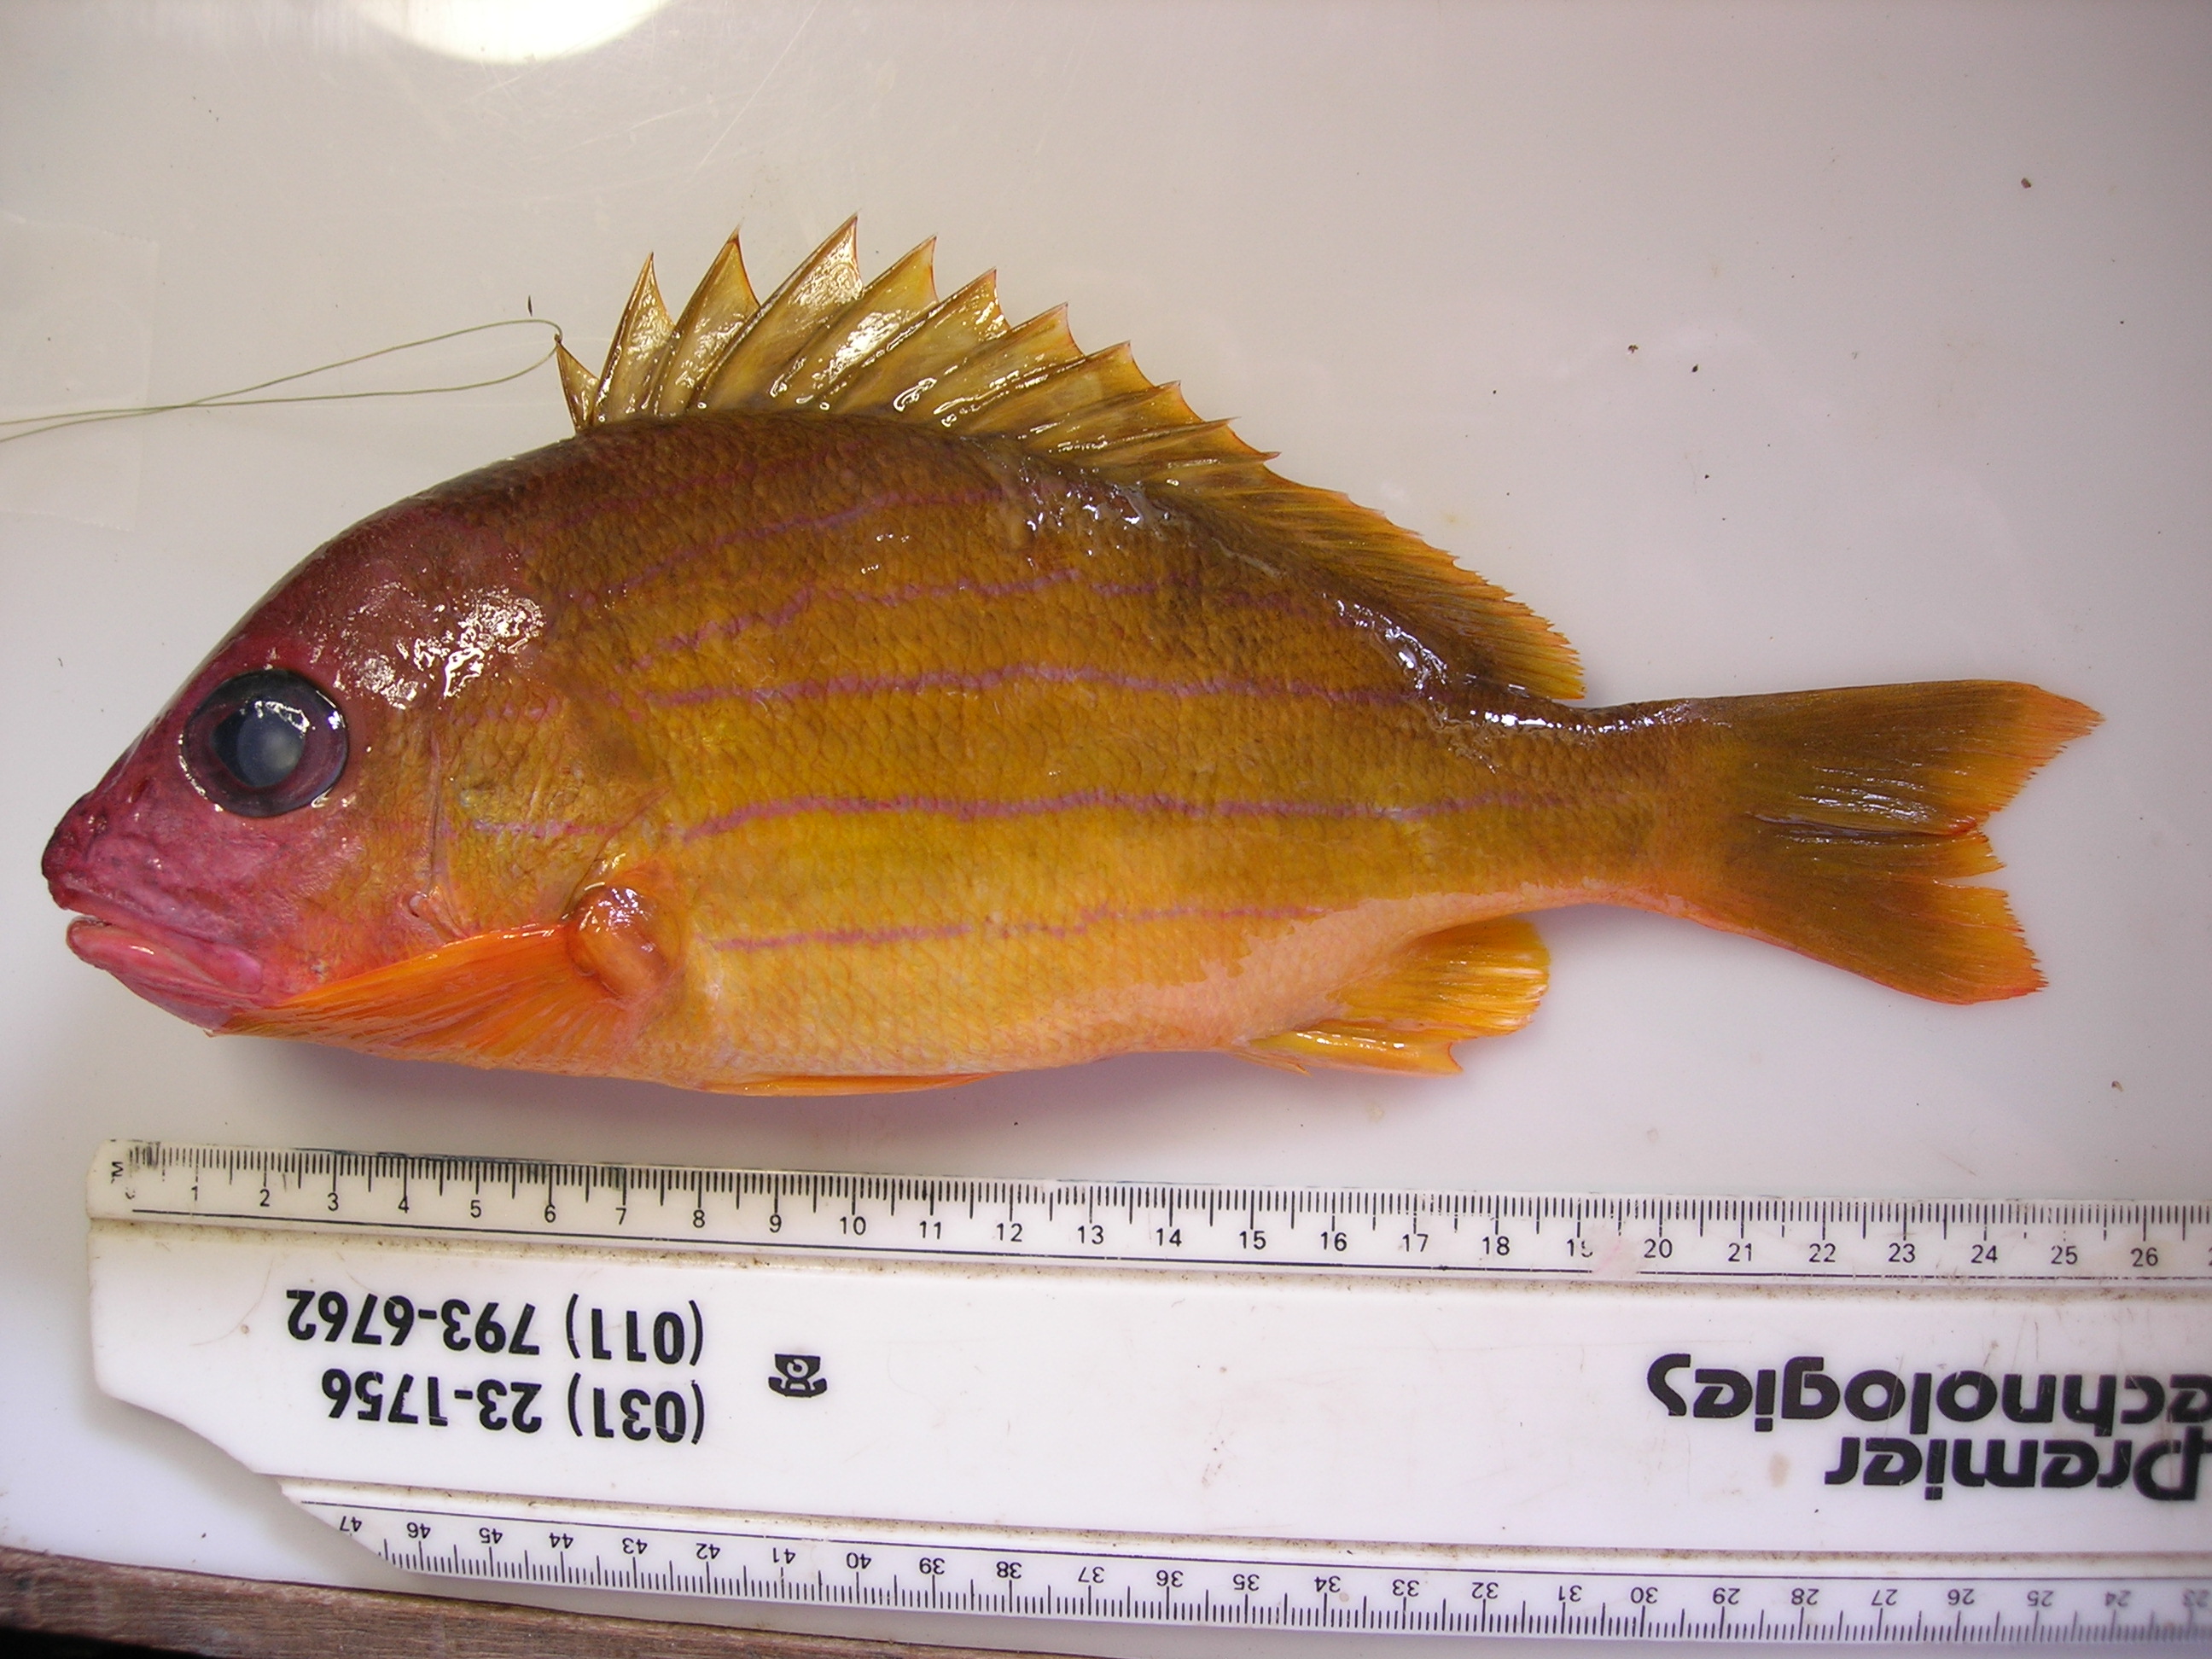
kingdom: Animalia
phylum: Chordata
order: Perciformes
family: Lutjanidae
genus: Lutjanus
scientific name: Lutjanus notatus
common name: Bluestriped snapper
